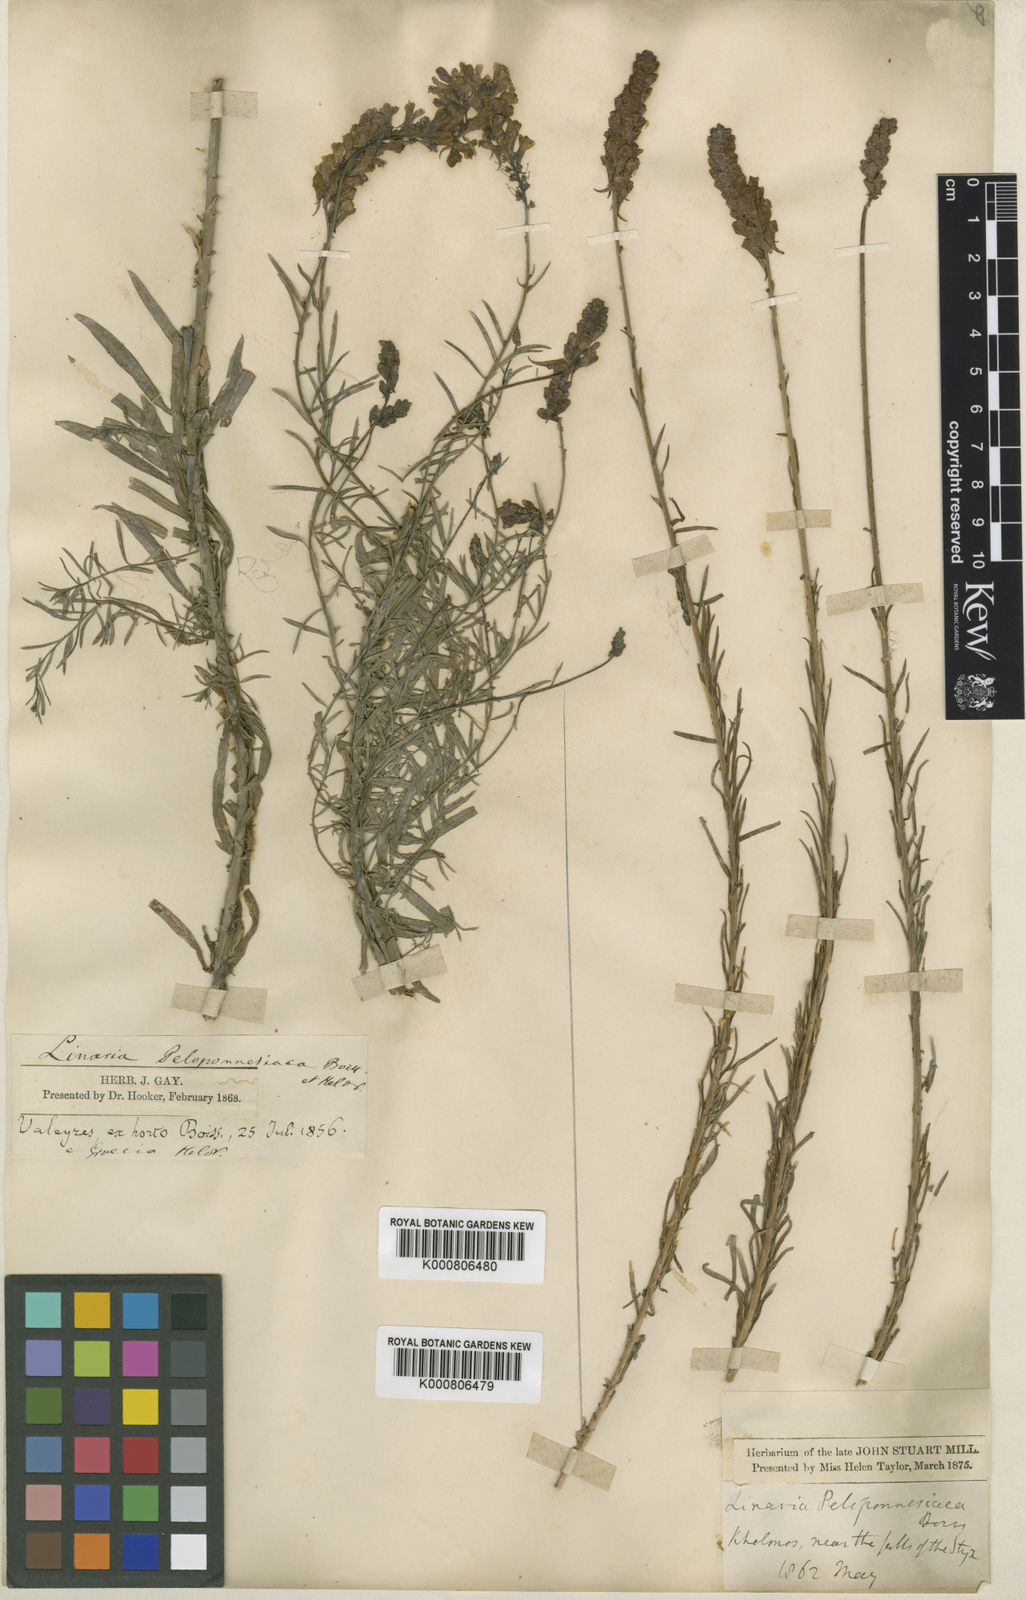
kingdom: Plantae
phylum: Tracheophyta
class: Magnoliopsida
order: Lamiales
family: Plantaginaceae
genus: Linaria
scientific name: Linaria peloponnesiaca
